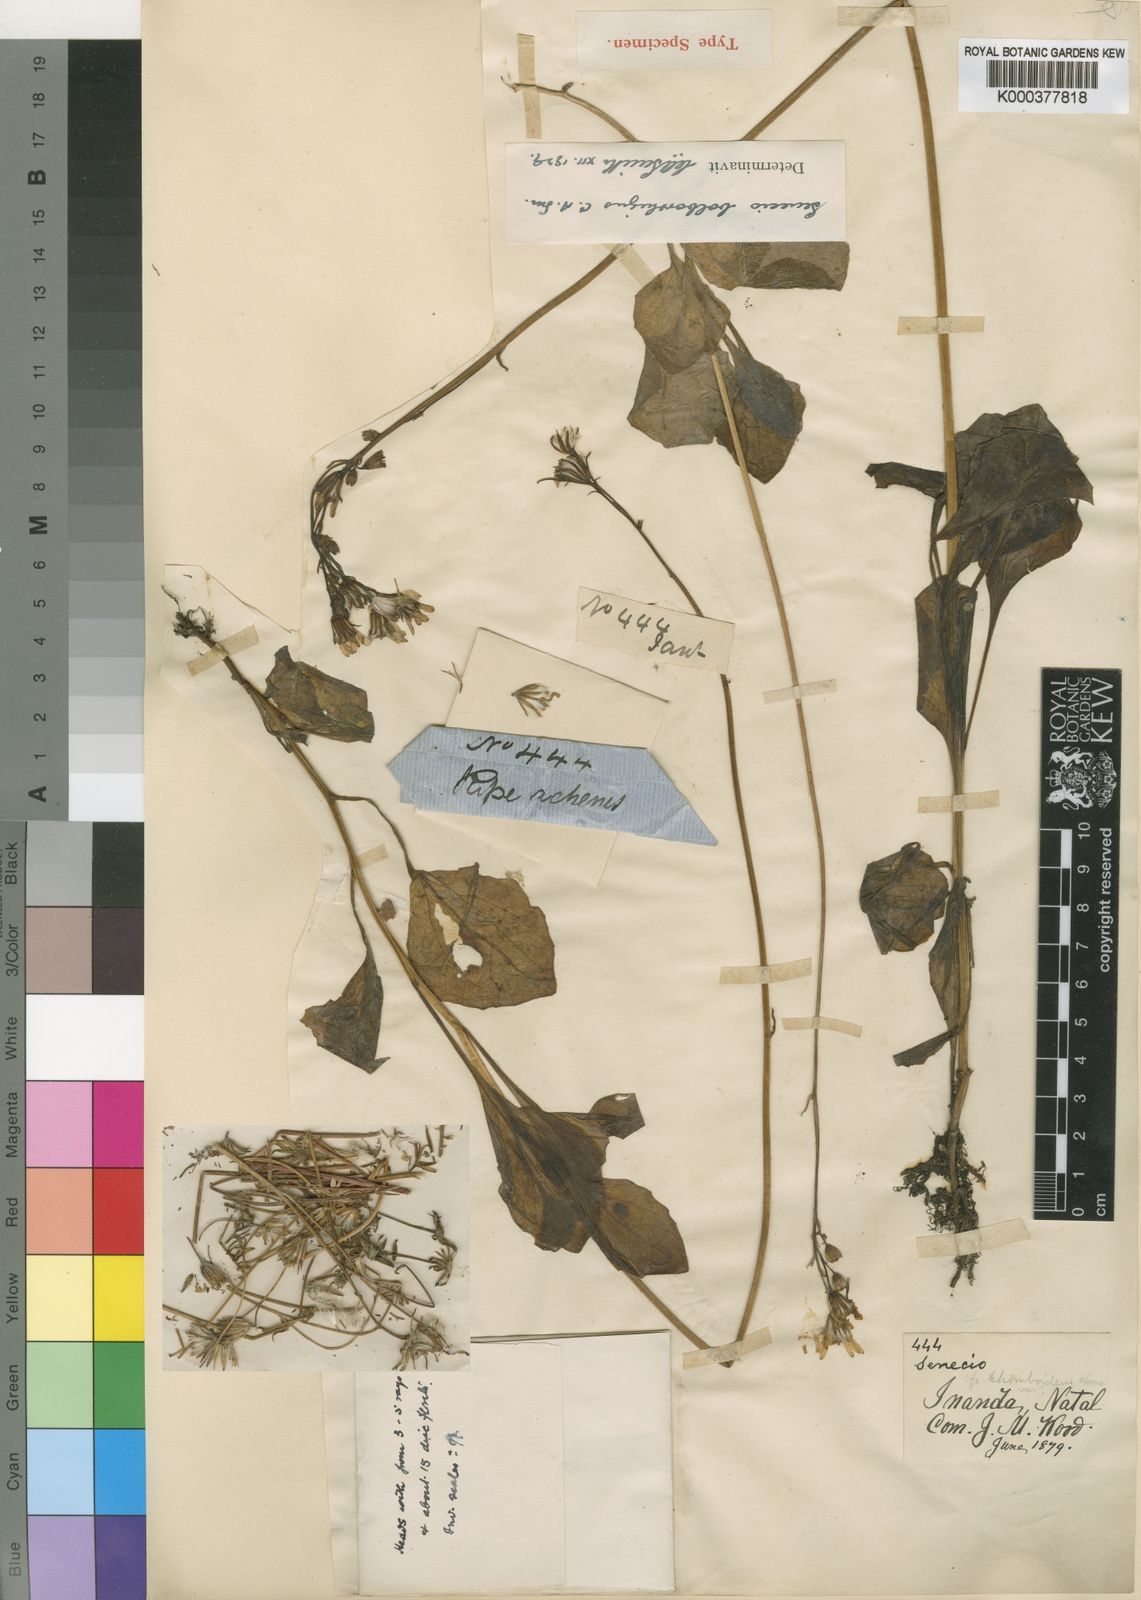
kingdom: Plantae
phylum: Tracheophyta
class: Magnoliopsida
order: Asterales
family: Asteraceae
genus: Senecio
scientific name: Senecio ruwenzoriensis
